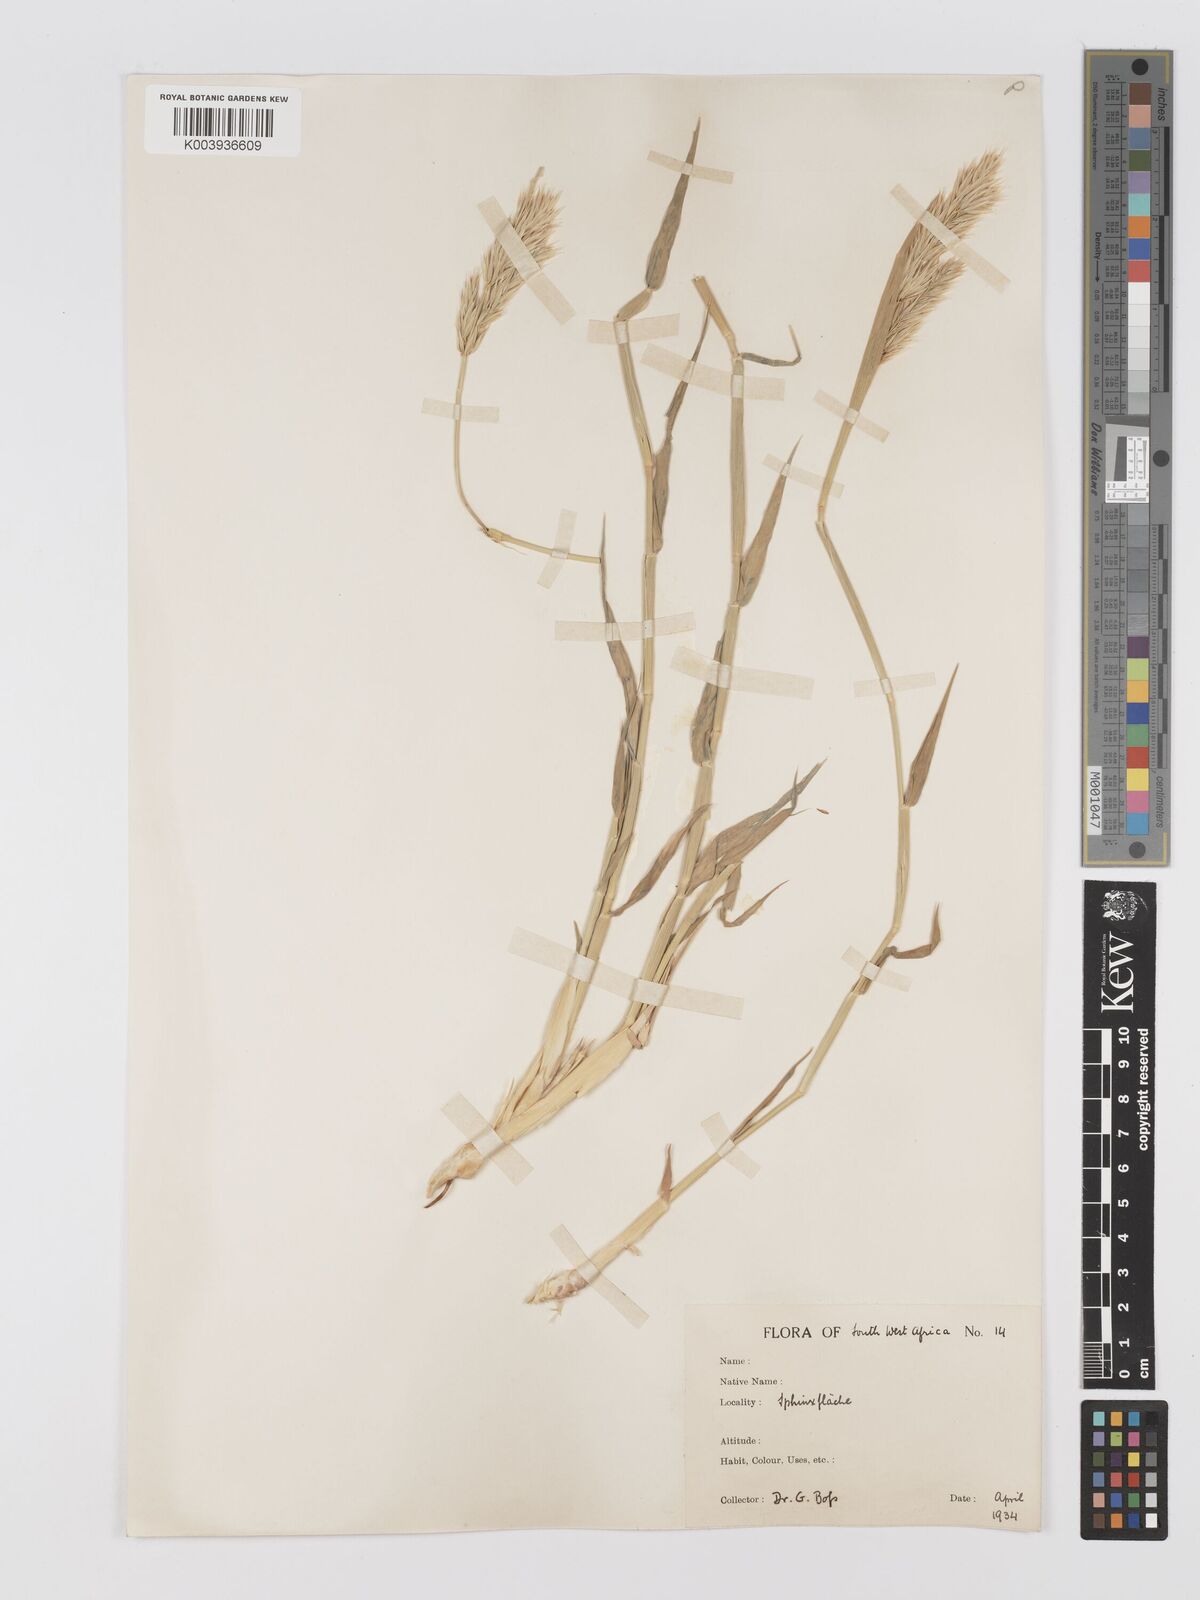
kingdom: Plantae
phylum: Tracheophyta
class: Liliopsida
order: Poales
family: Poaceae
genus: Centropodia
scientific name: Centropodia glauca
